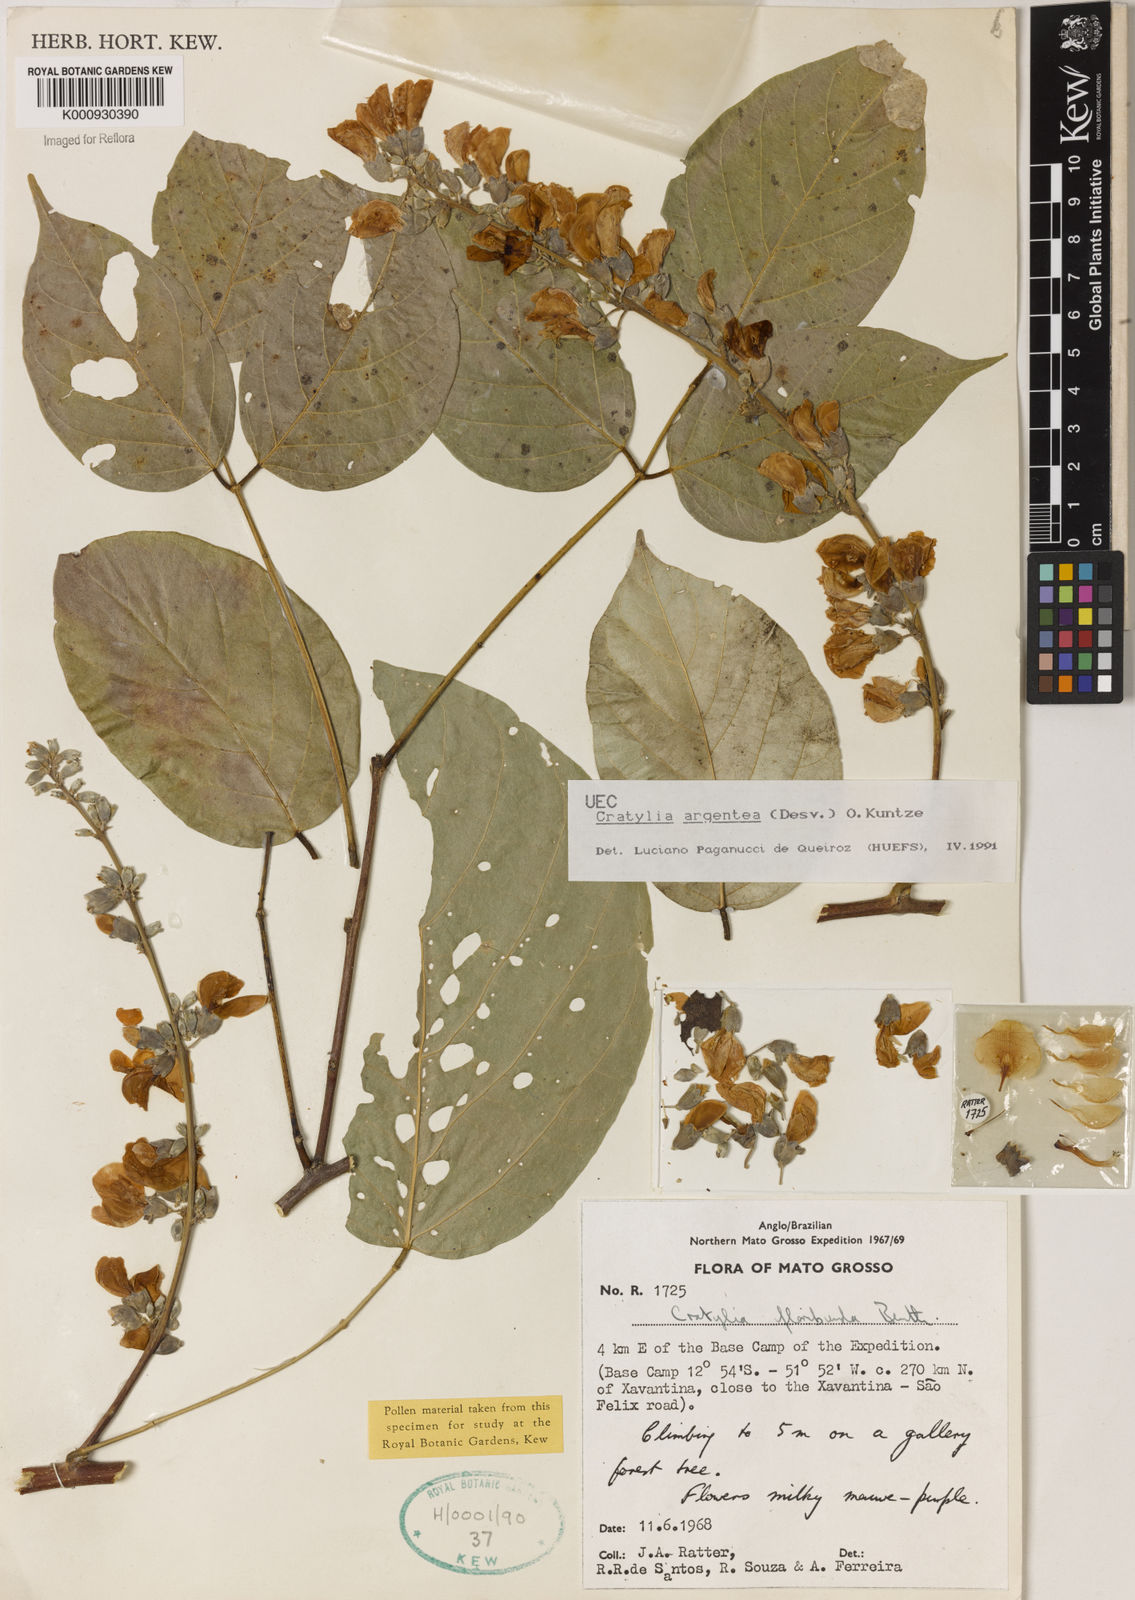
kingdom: Plantae
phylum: Tracheophyta
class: Magnoliopsida
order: Fabales
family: Fabaceae
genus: Cratylia
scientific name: Cratylia argentea
